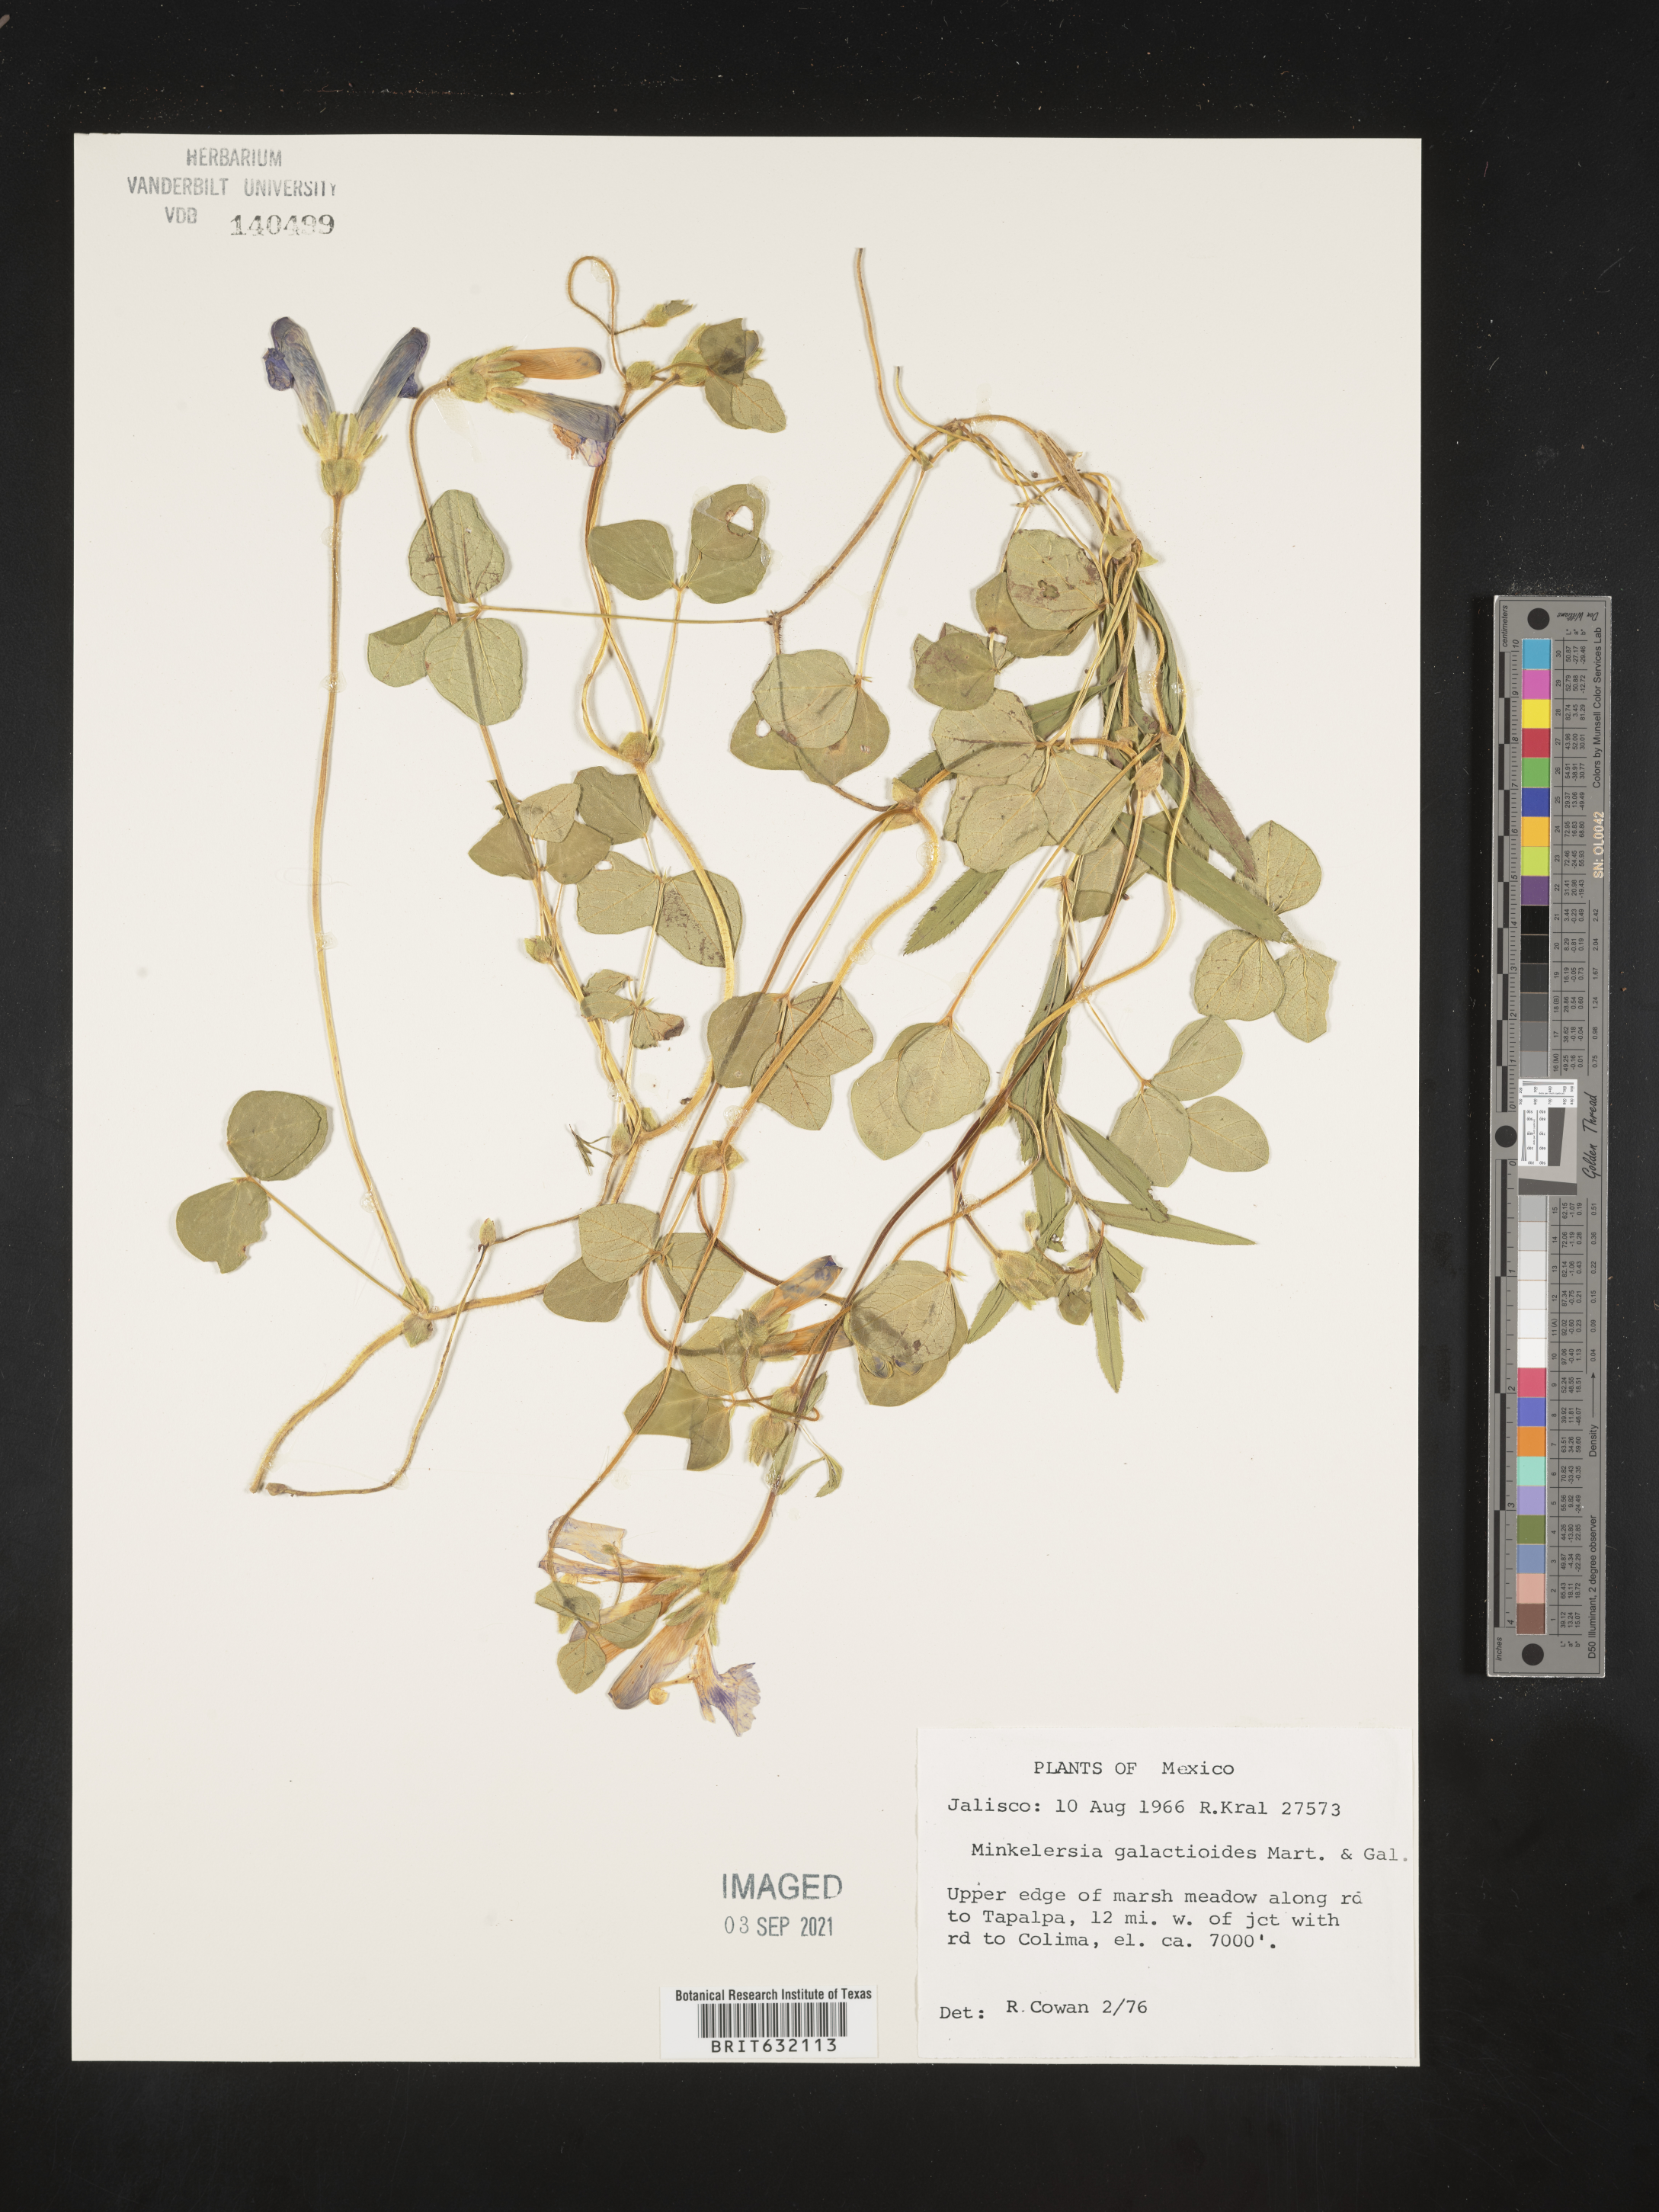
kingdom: Plantae
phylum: Tracheophyta
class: Magnoliopsida
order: Fabales
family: Fabaceae
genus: Phaseolus
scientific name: Phaseolus pauciflorus
